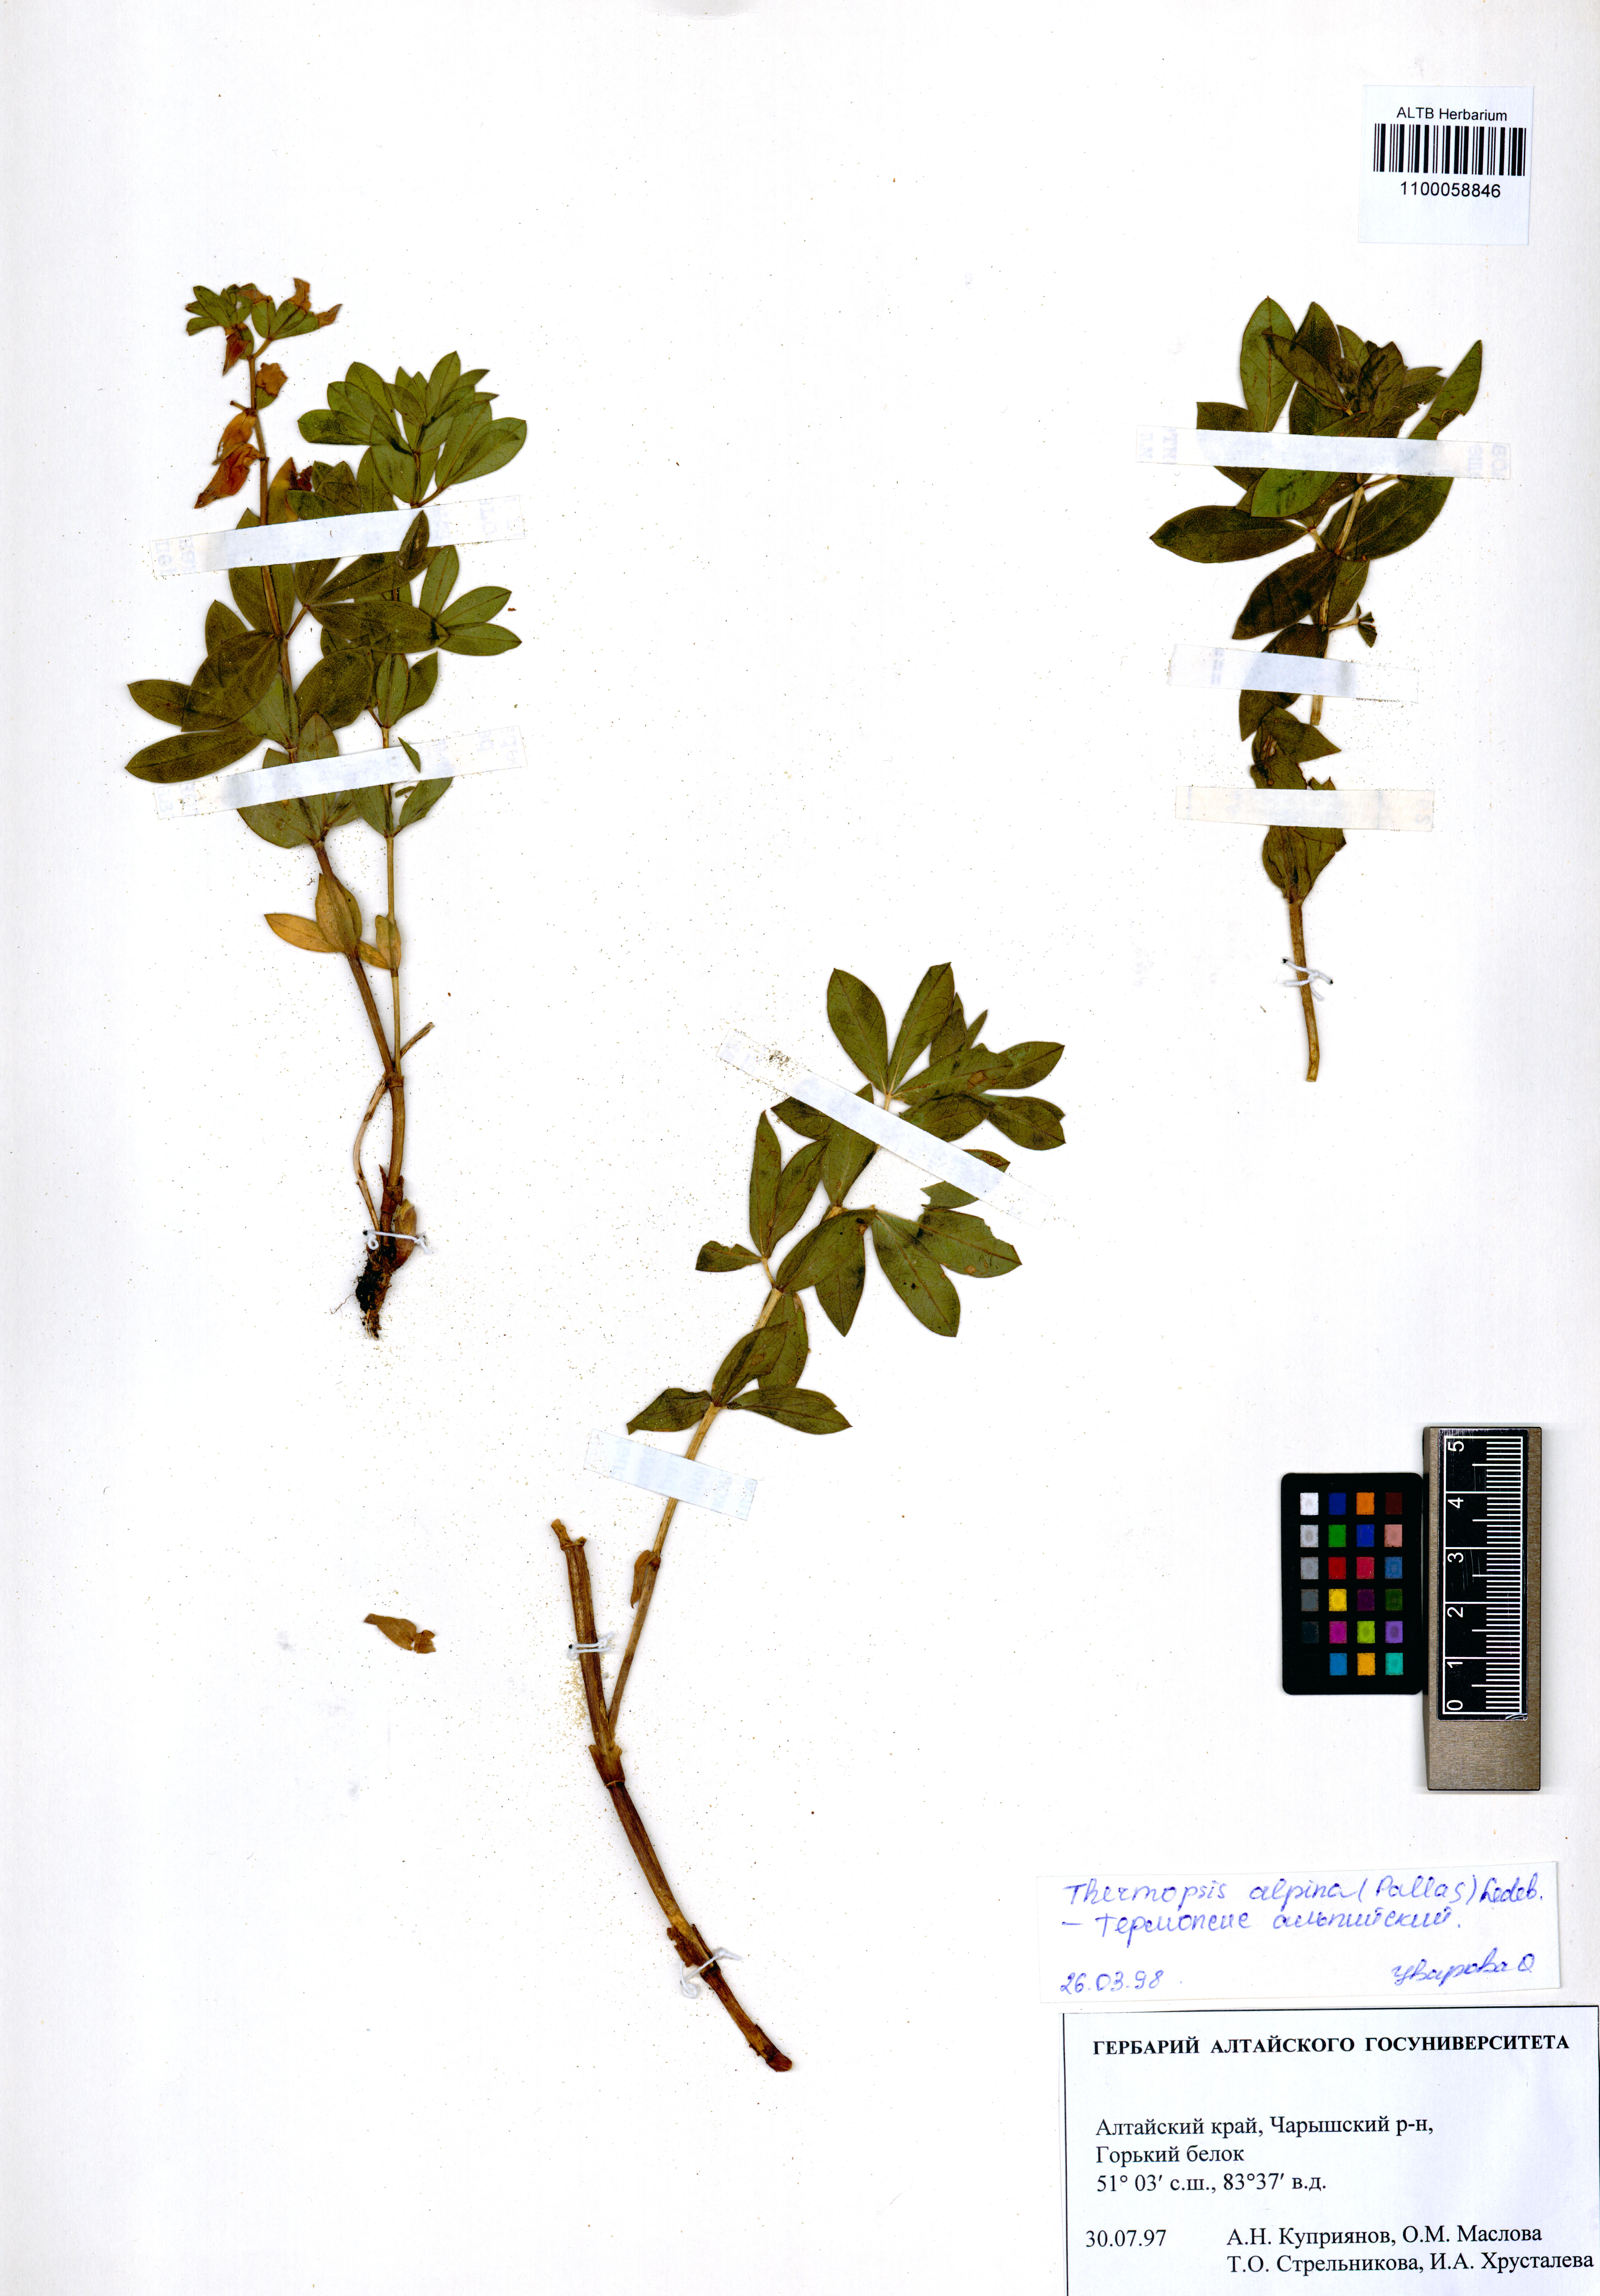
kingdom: Plantae
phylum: Tracheophyta
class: Magnoliopsida
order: Fabales
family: Fabaceae
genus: Thermopsis
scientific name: Thermopsis alpina
